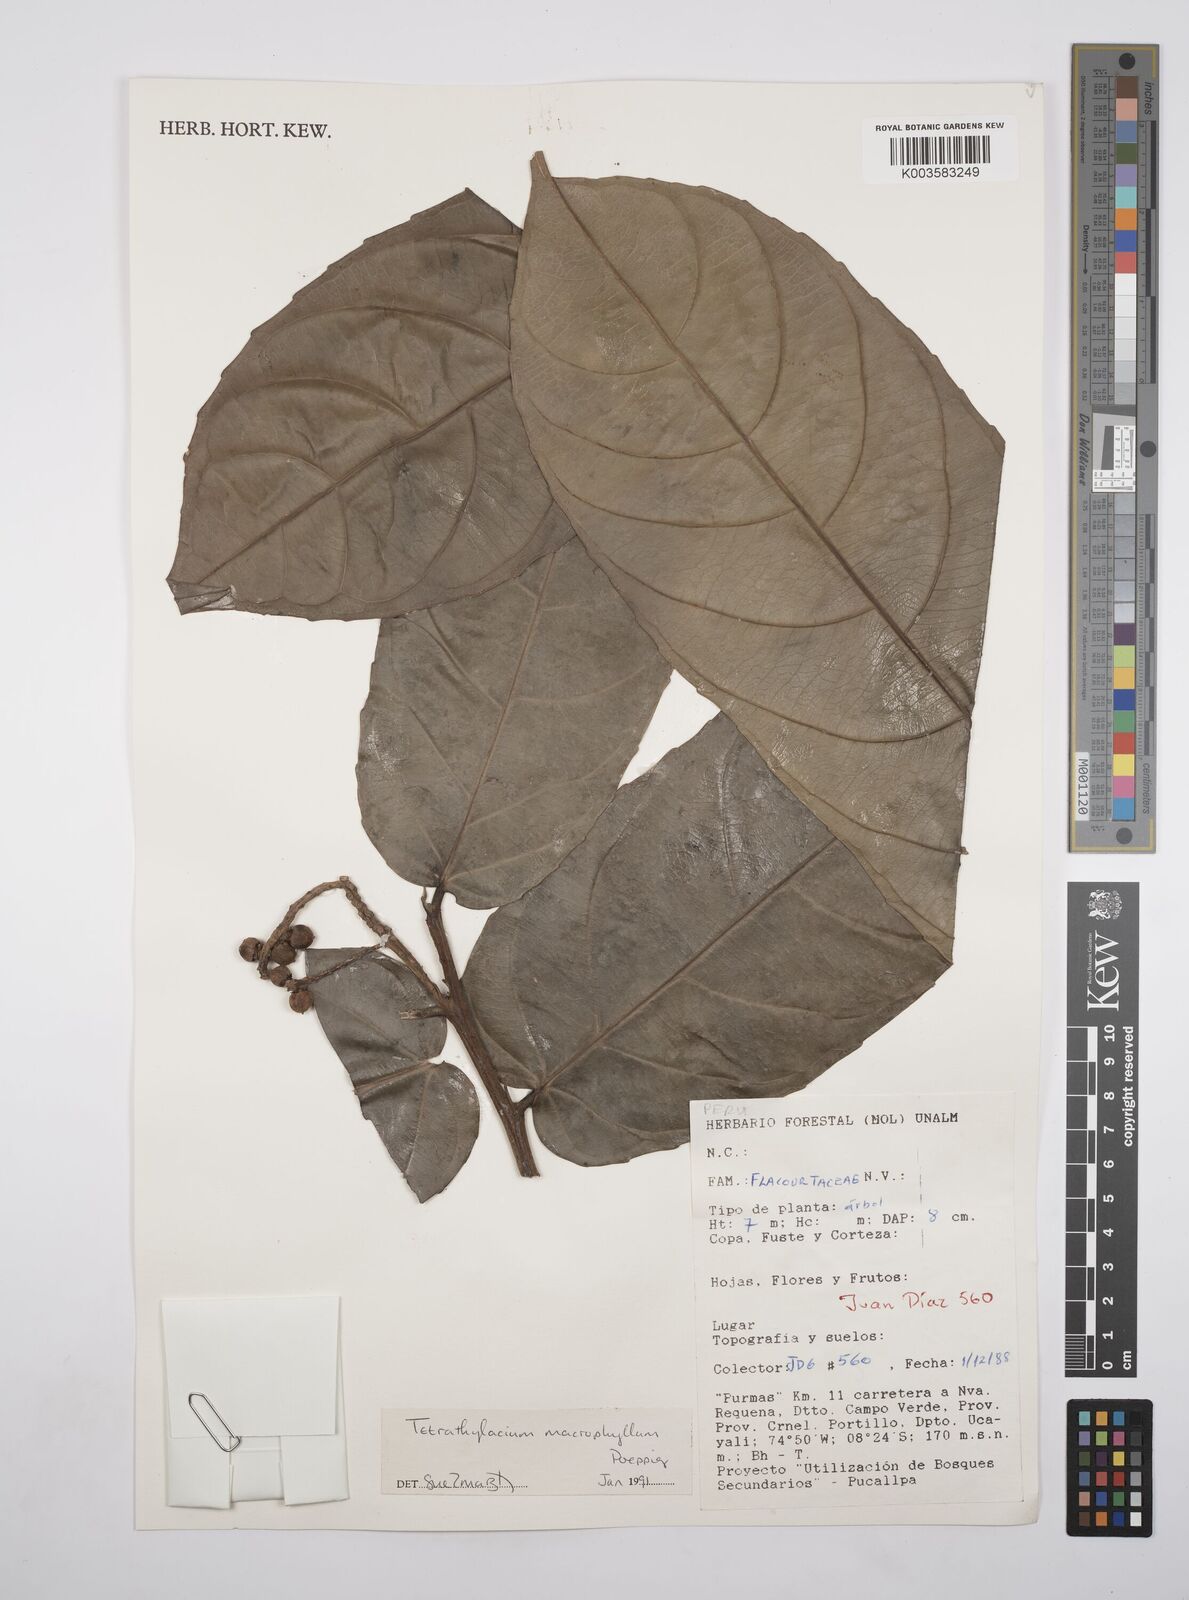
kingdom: Plantae
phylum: Tracheophyta
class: Magnoliopsida
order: Malpighiales
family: Salicaceae
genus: Tetrathylacium
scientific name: Tetrathylacium macrophyllum
